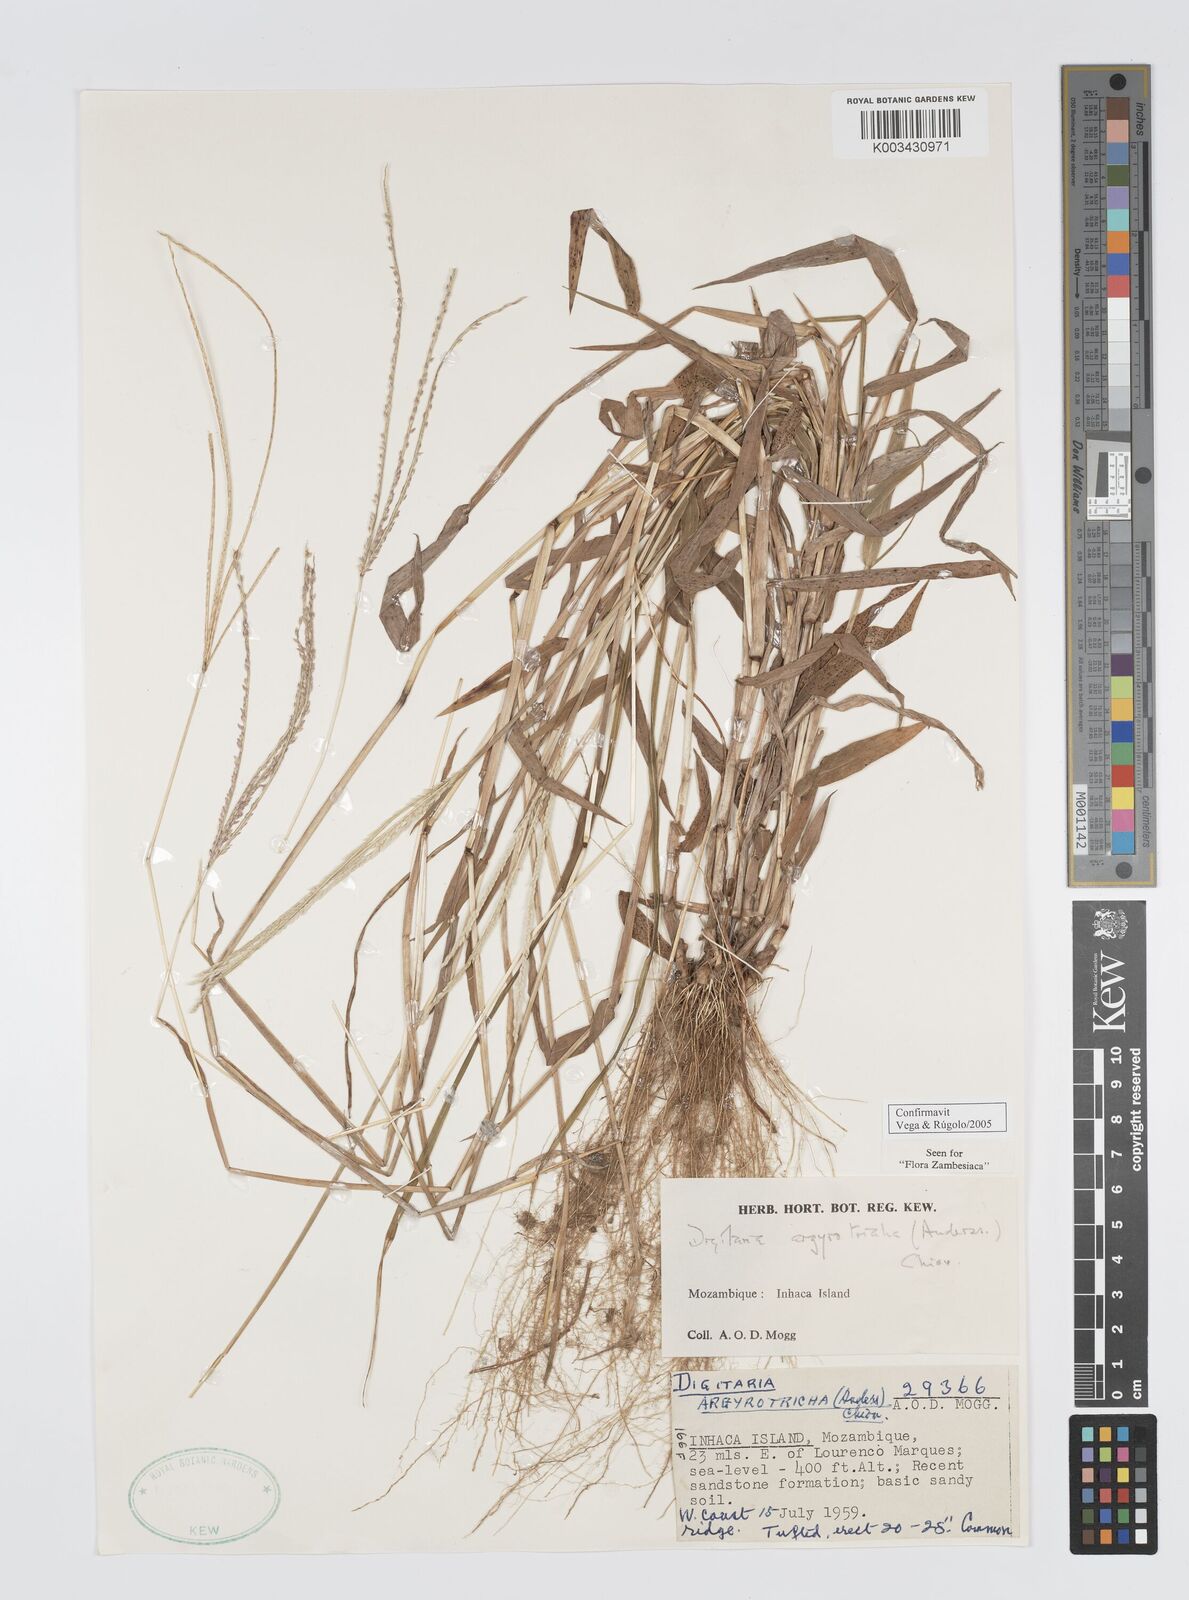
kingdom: Plantae
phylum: Tracheophyta
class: Liliopsida
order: Poales
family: Poaceae
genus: Digitaria
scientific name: Digitaria argyrotricha
